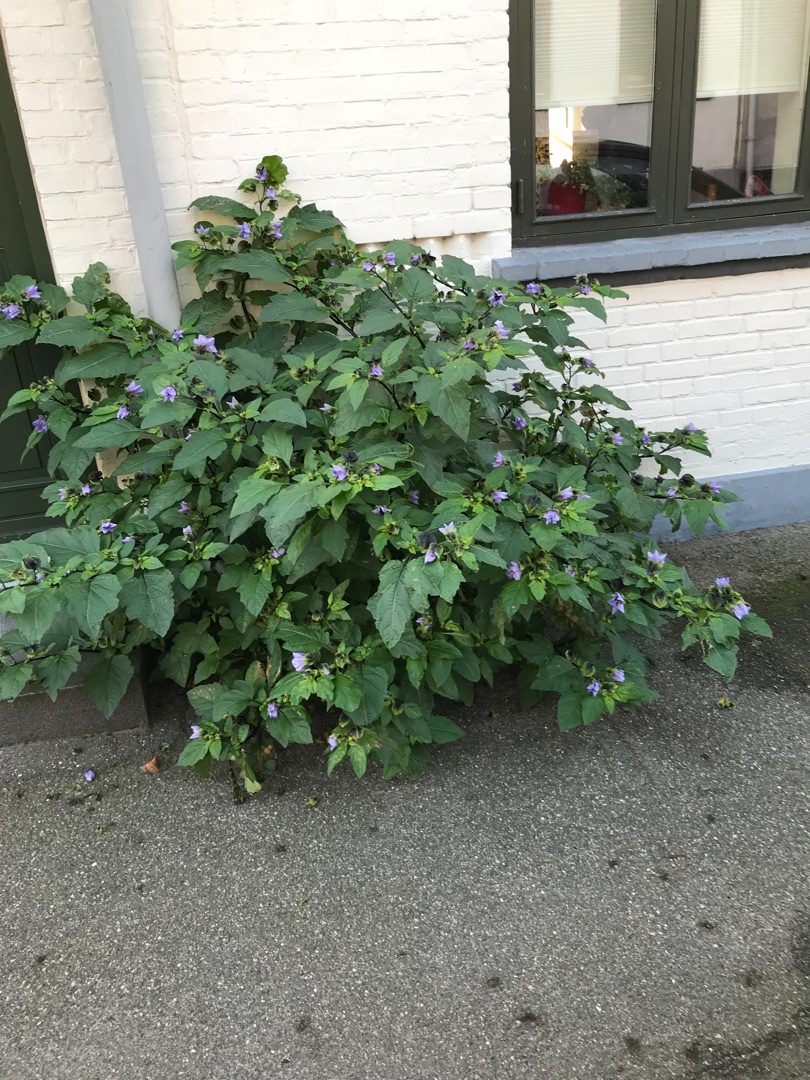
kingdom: Plantae
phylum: Tracheophyta
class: Magnoliopsida
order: Solanales
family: Solanaceae
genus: Nicandra
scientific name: Nicandra physalodes
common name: Kantbæger
